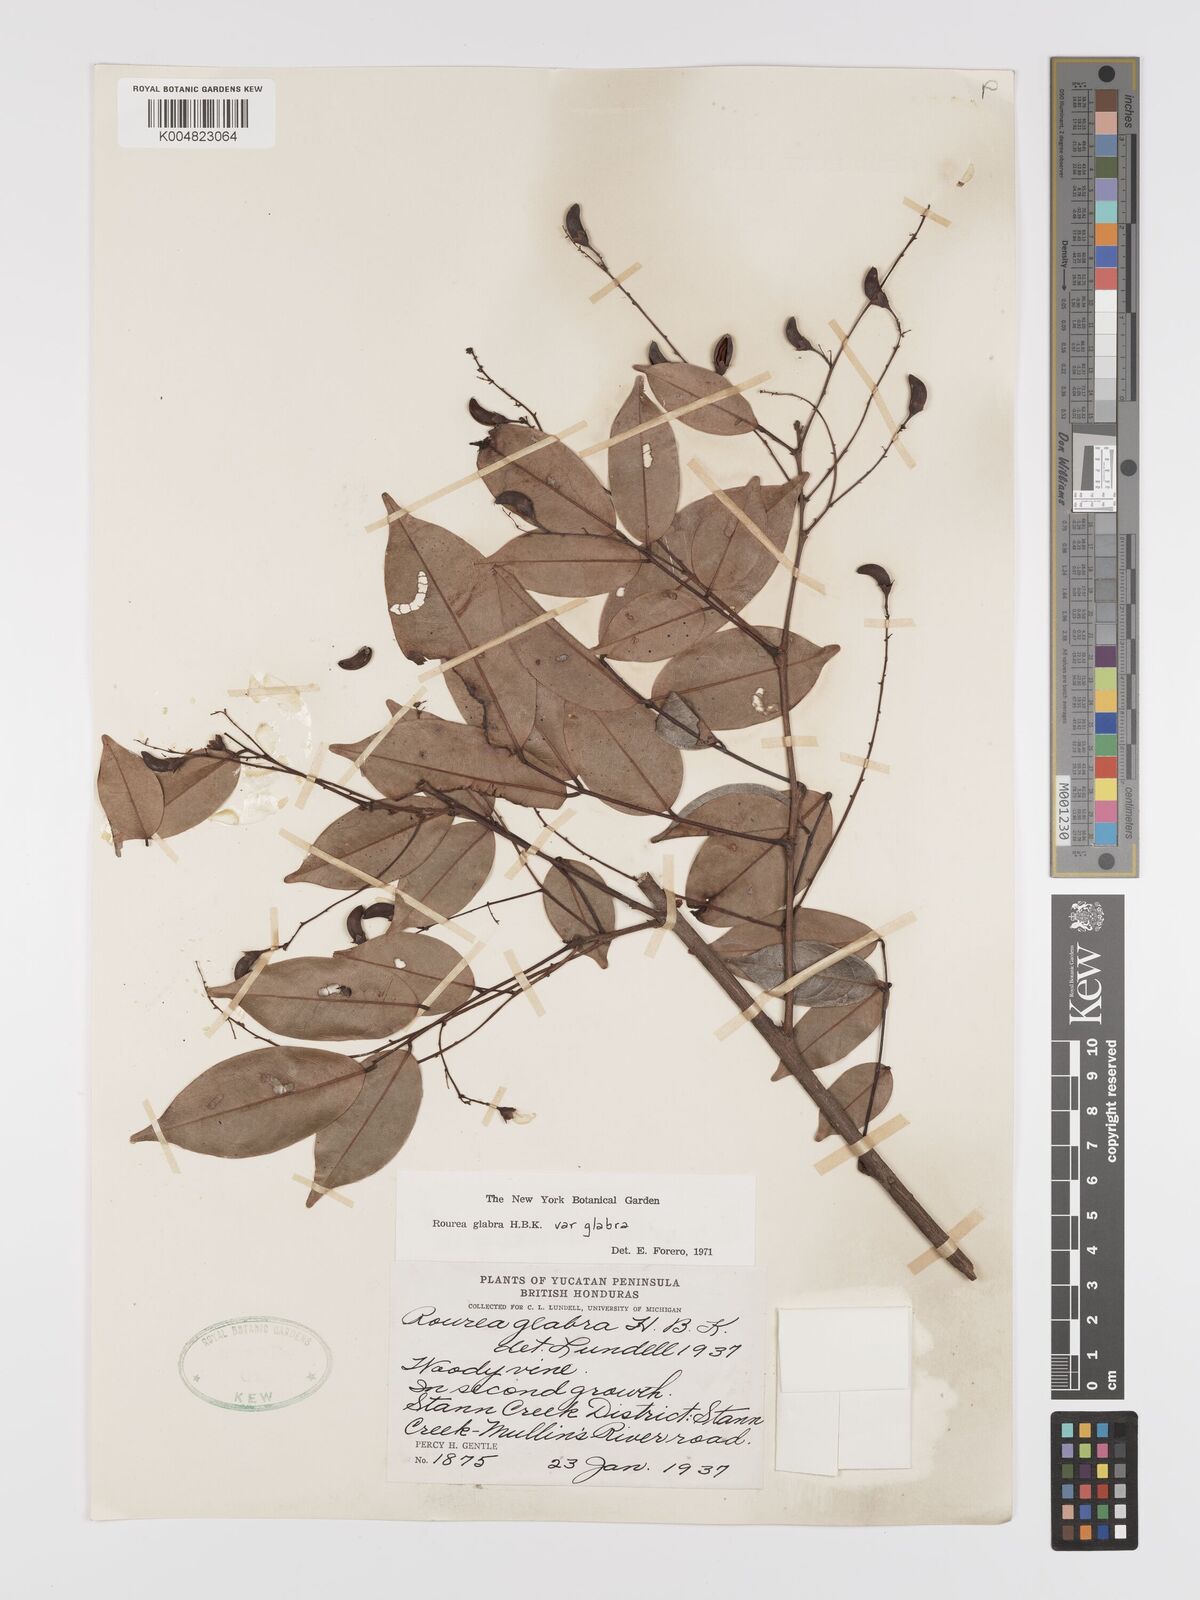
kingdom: Plantae
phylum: Tracheophyta
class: Magnoliopsida
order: Oxalidales
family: Connaraceae
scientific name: Connaraceae
